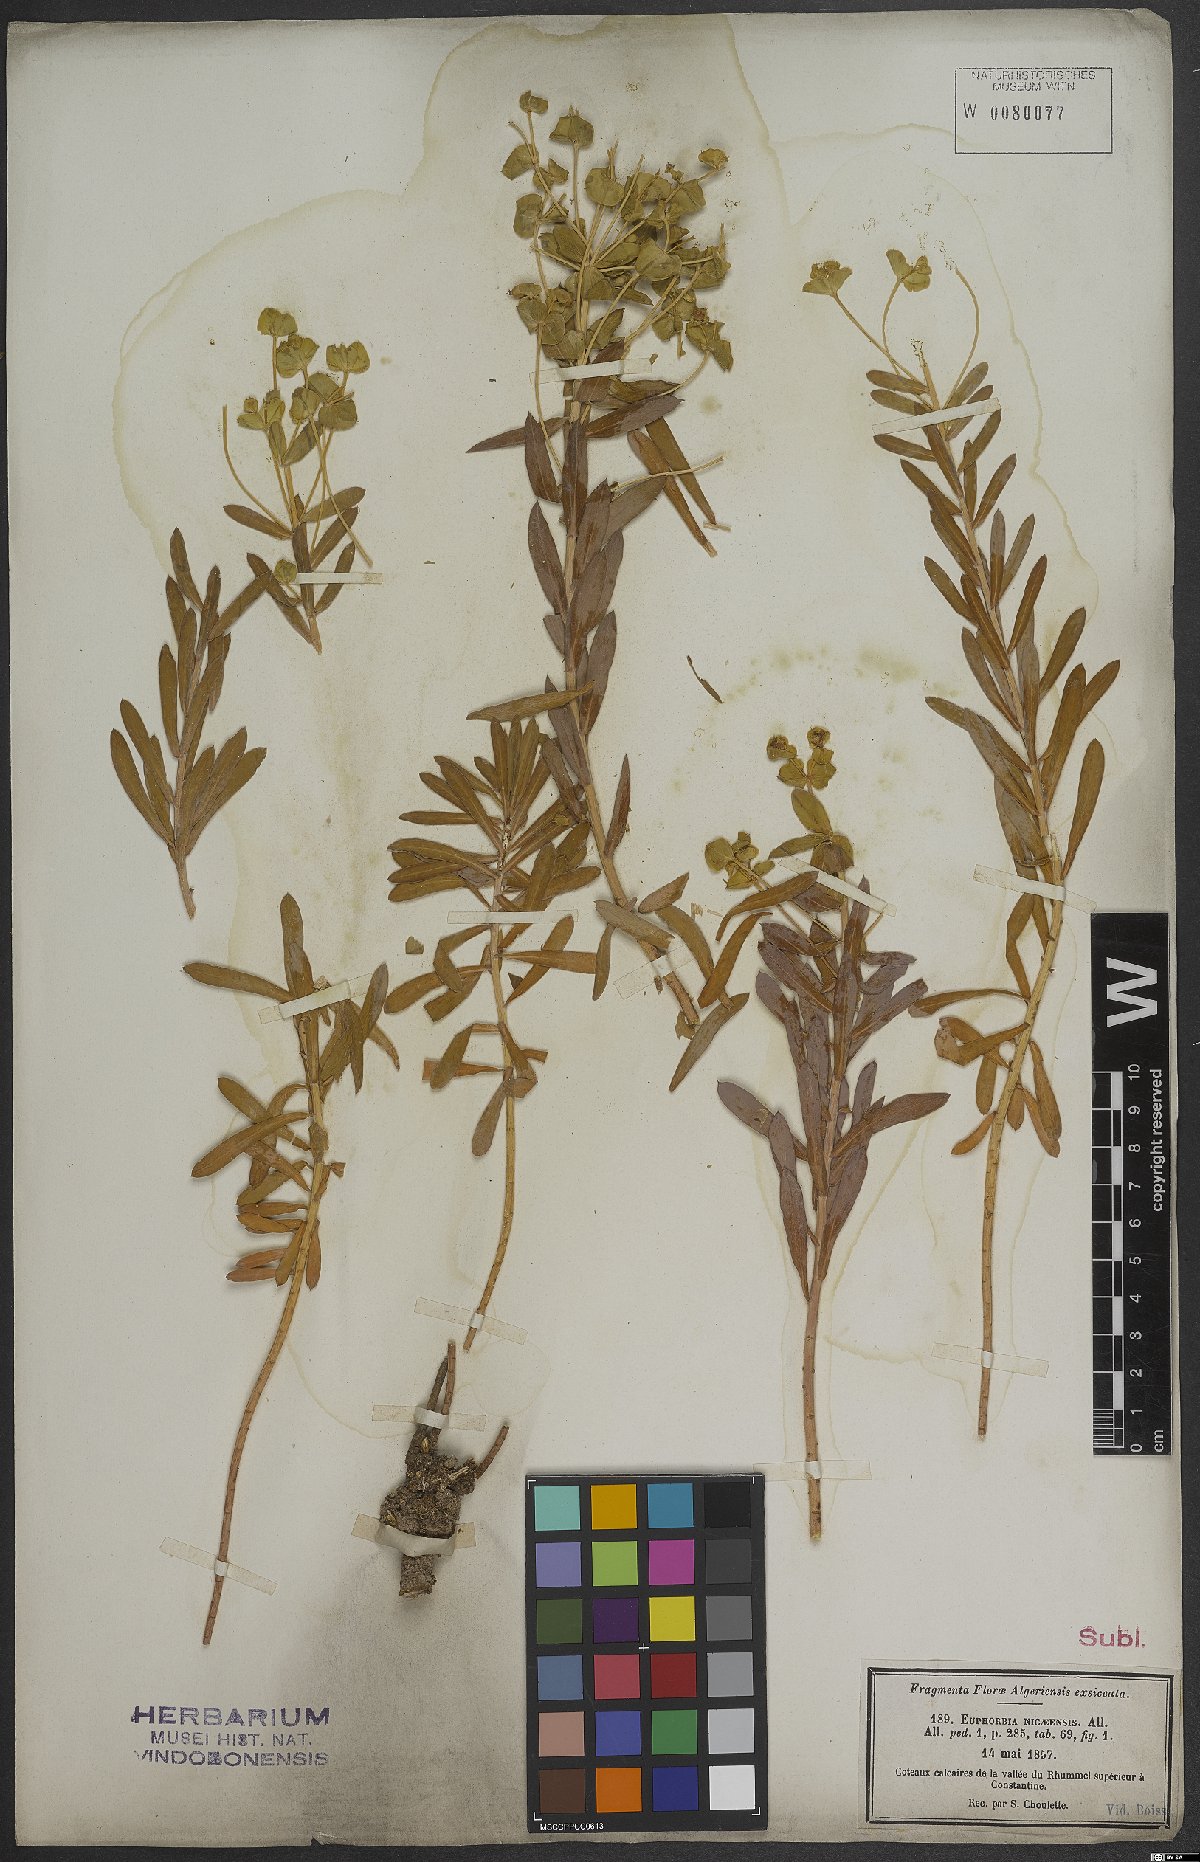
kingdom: Plantae
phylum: Tracheophyta
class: Magnoliopsida
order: Malpighiales
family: Euphorbiaceae
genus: Euphorbia
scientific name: Euphorbia nicaeensis
